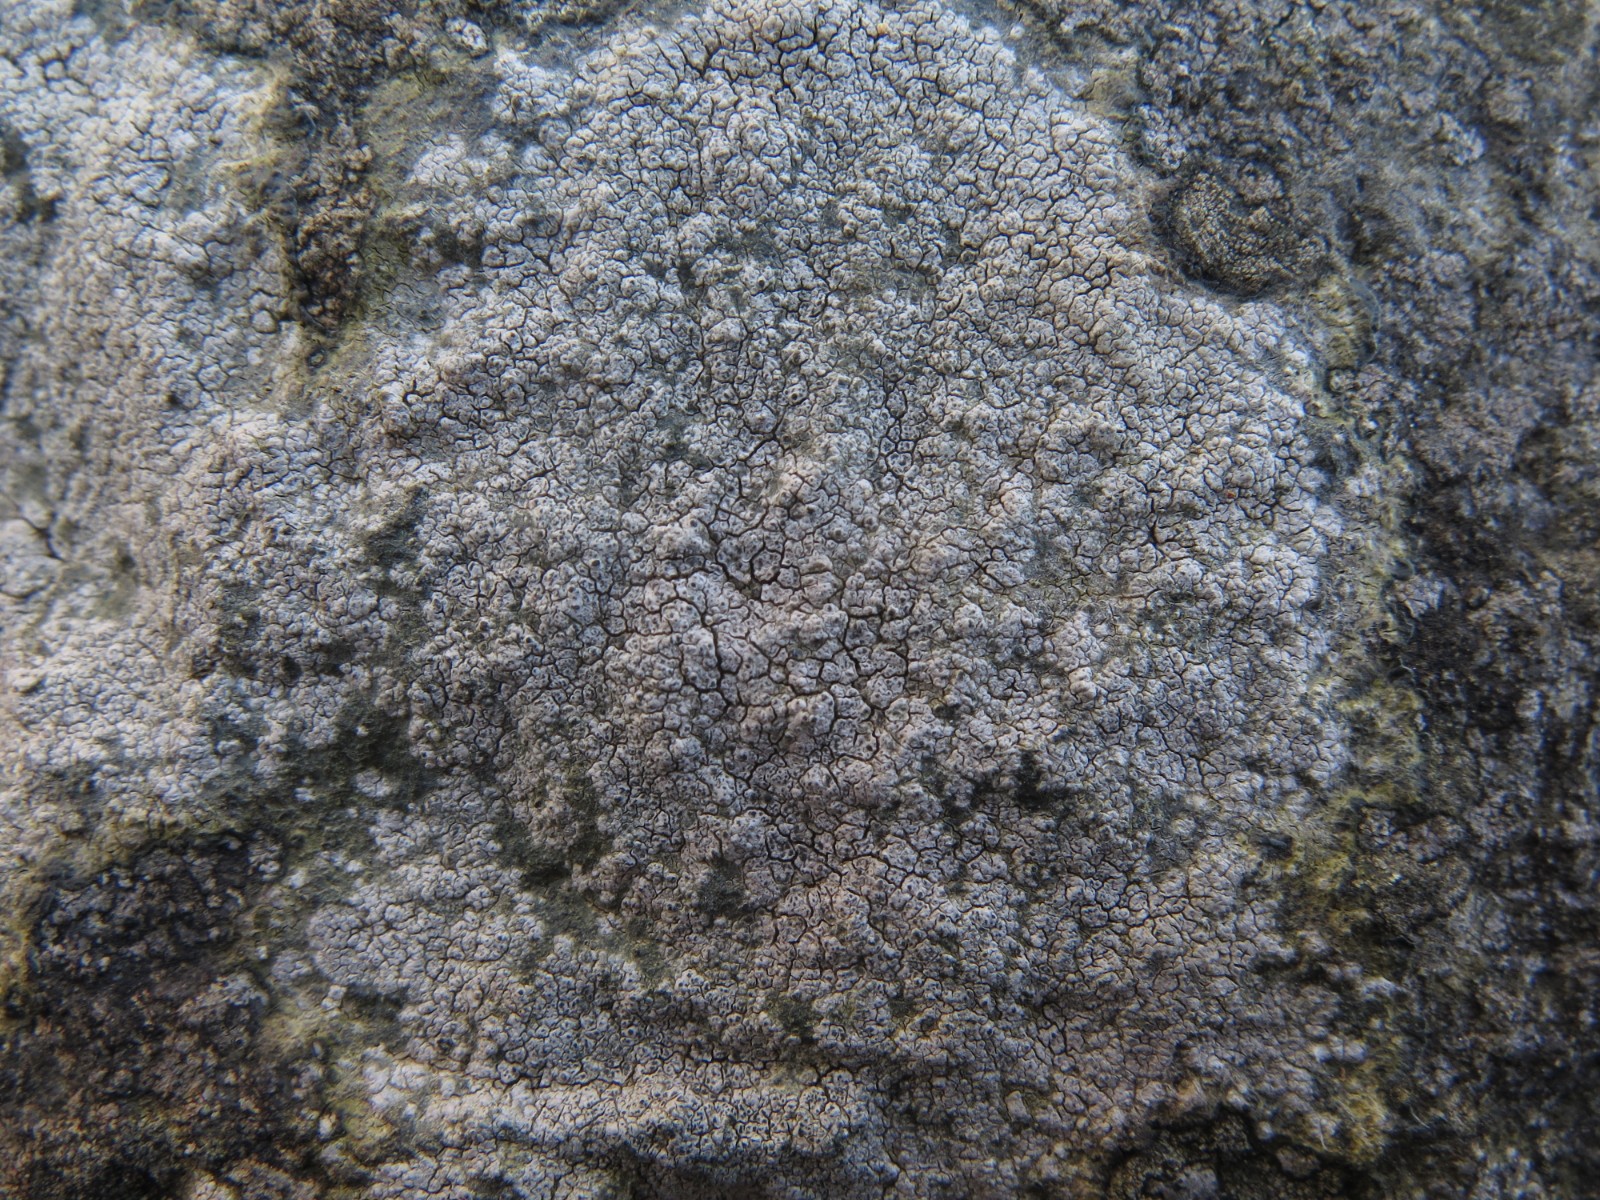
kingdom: Fungi
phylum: Ascomycota
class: Lecanoromycetes
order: Pertusariales
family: Megasporaceae
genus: Circinaria
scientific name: Circinaria caesiocinerea
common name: fuglestens-hulskivelav
